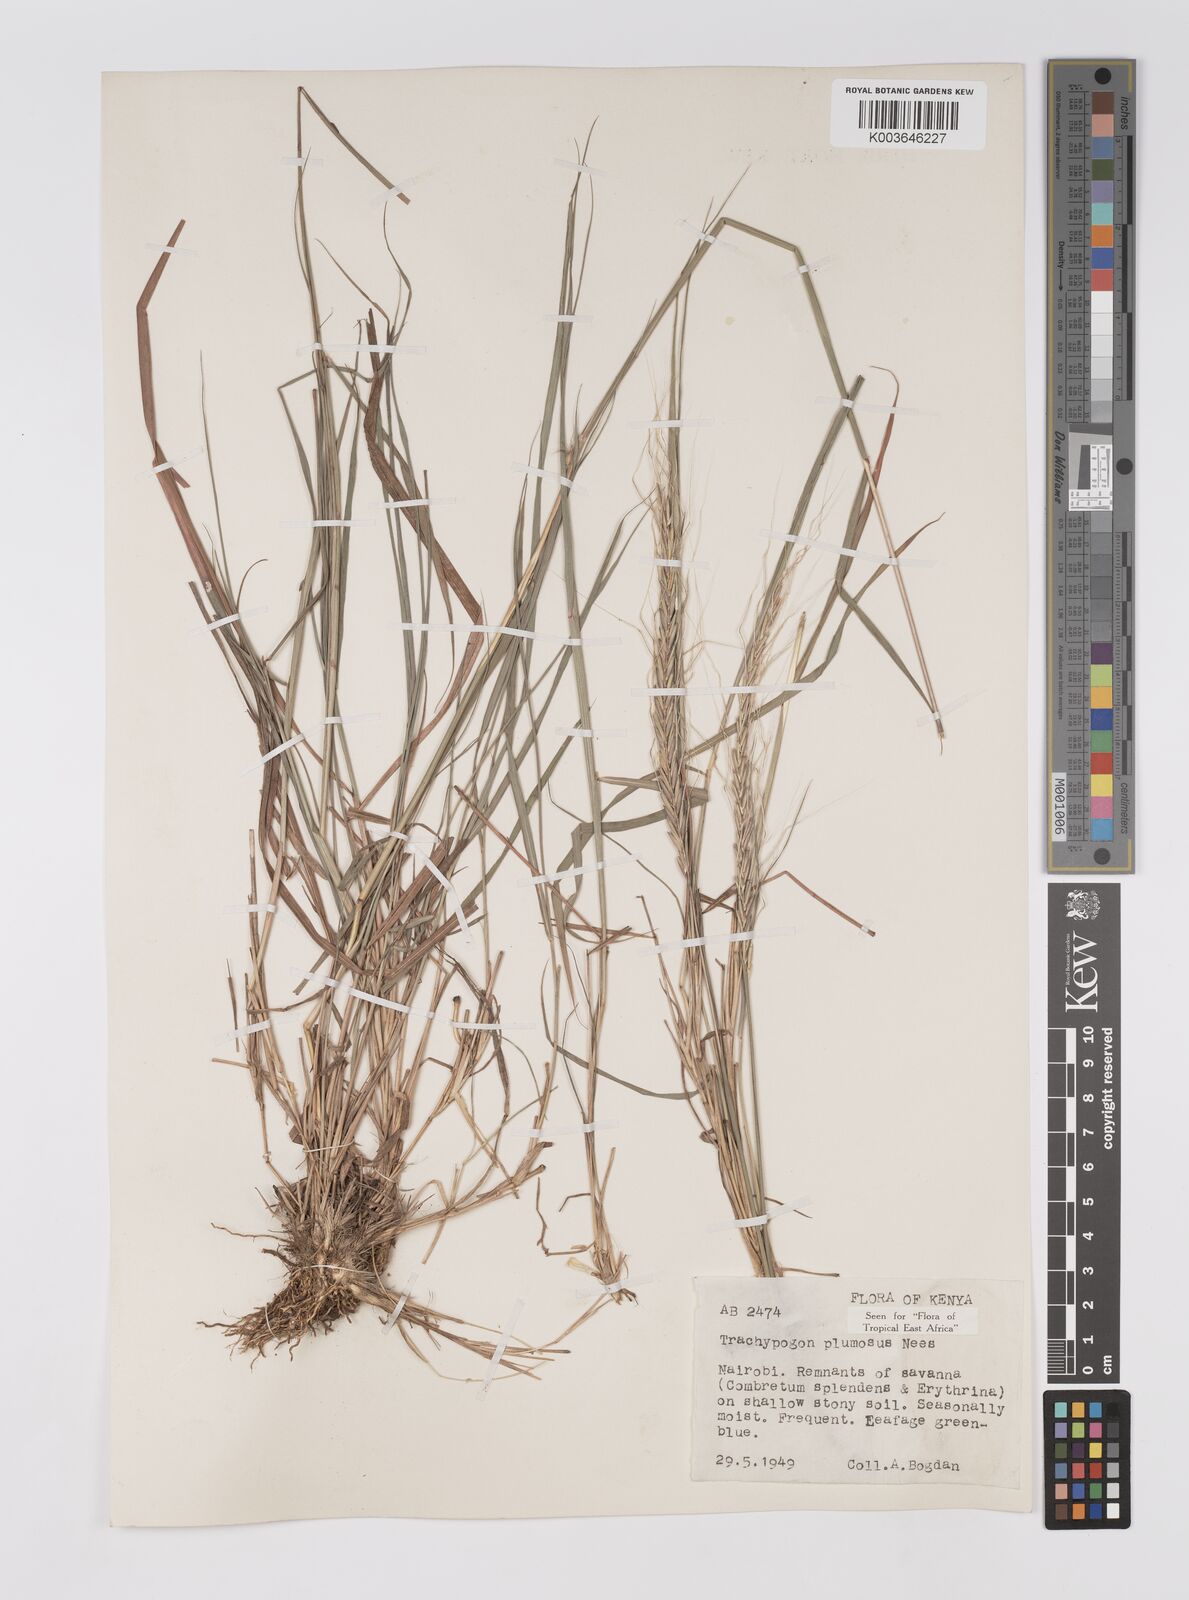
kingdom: Plantae
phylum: Tracheophyta
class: Liliopsida
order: Poales
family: Poaceae
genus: Trachypogon
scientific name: Trachypogon spicatus
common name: Crinkle-awn
